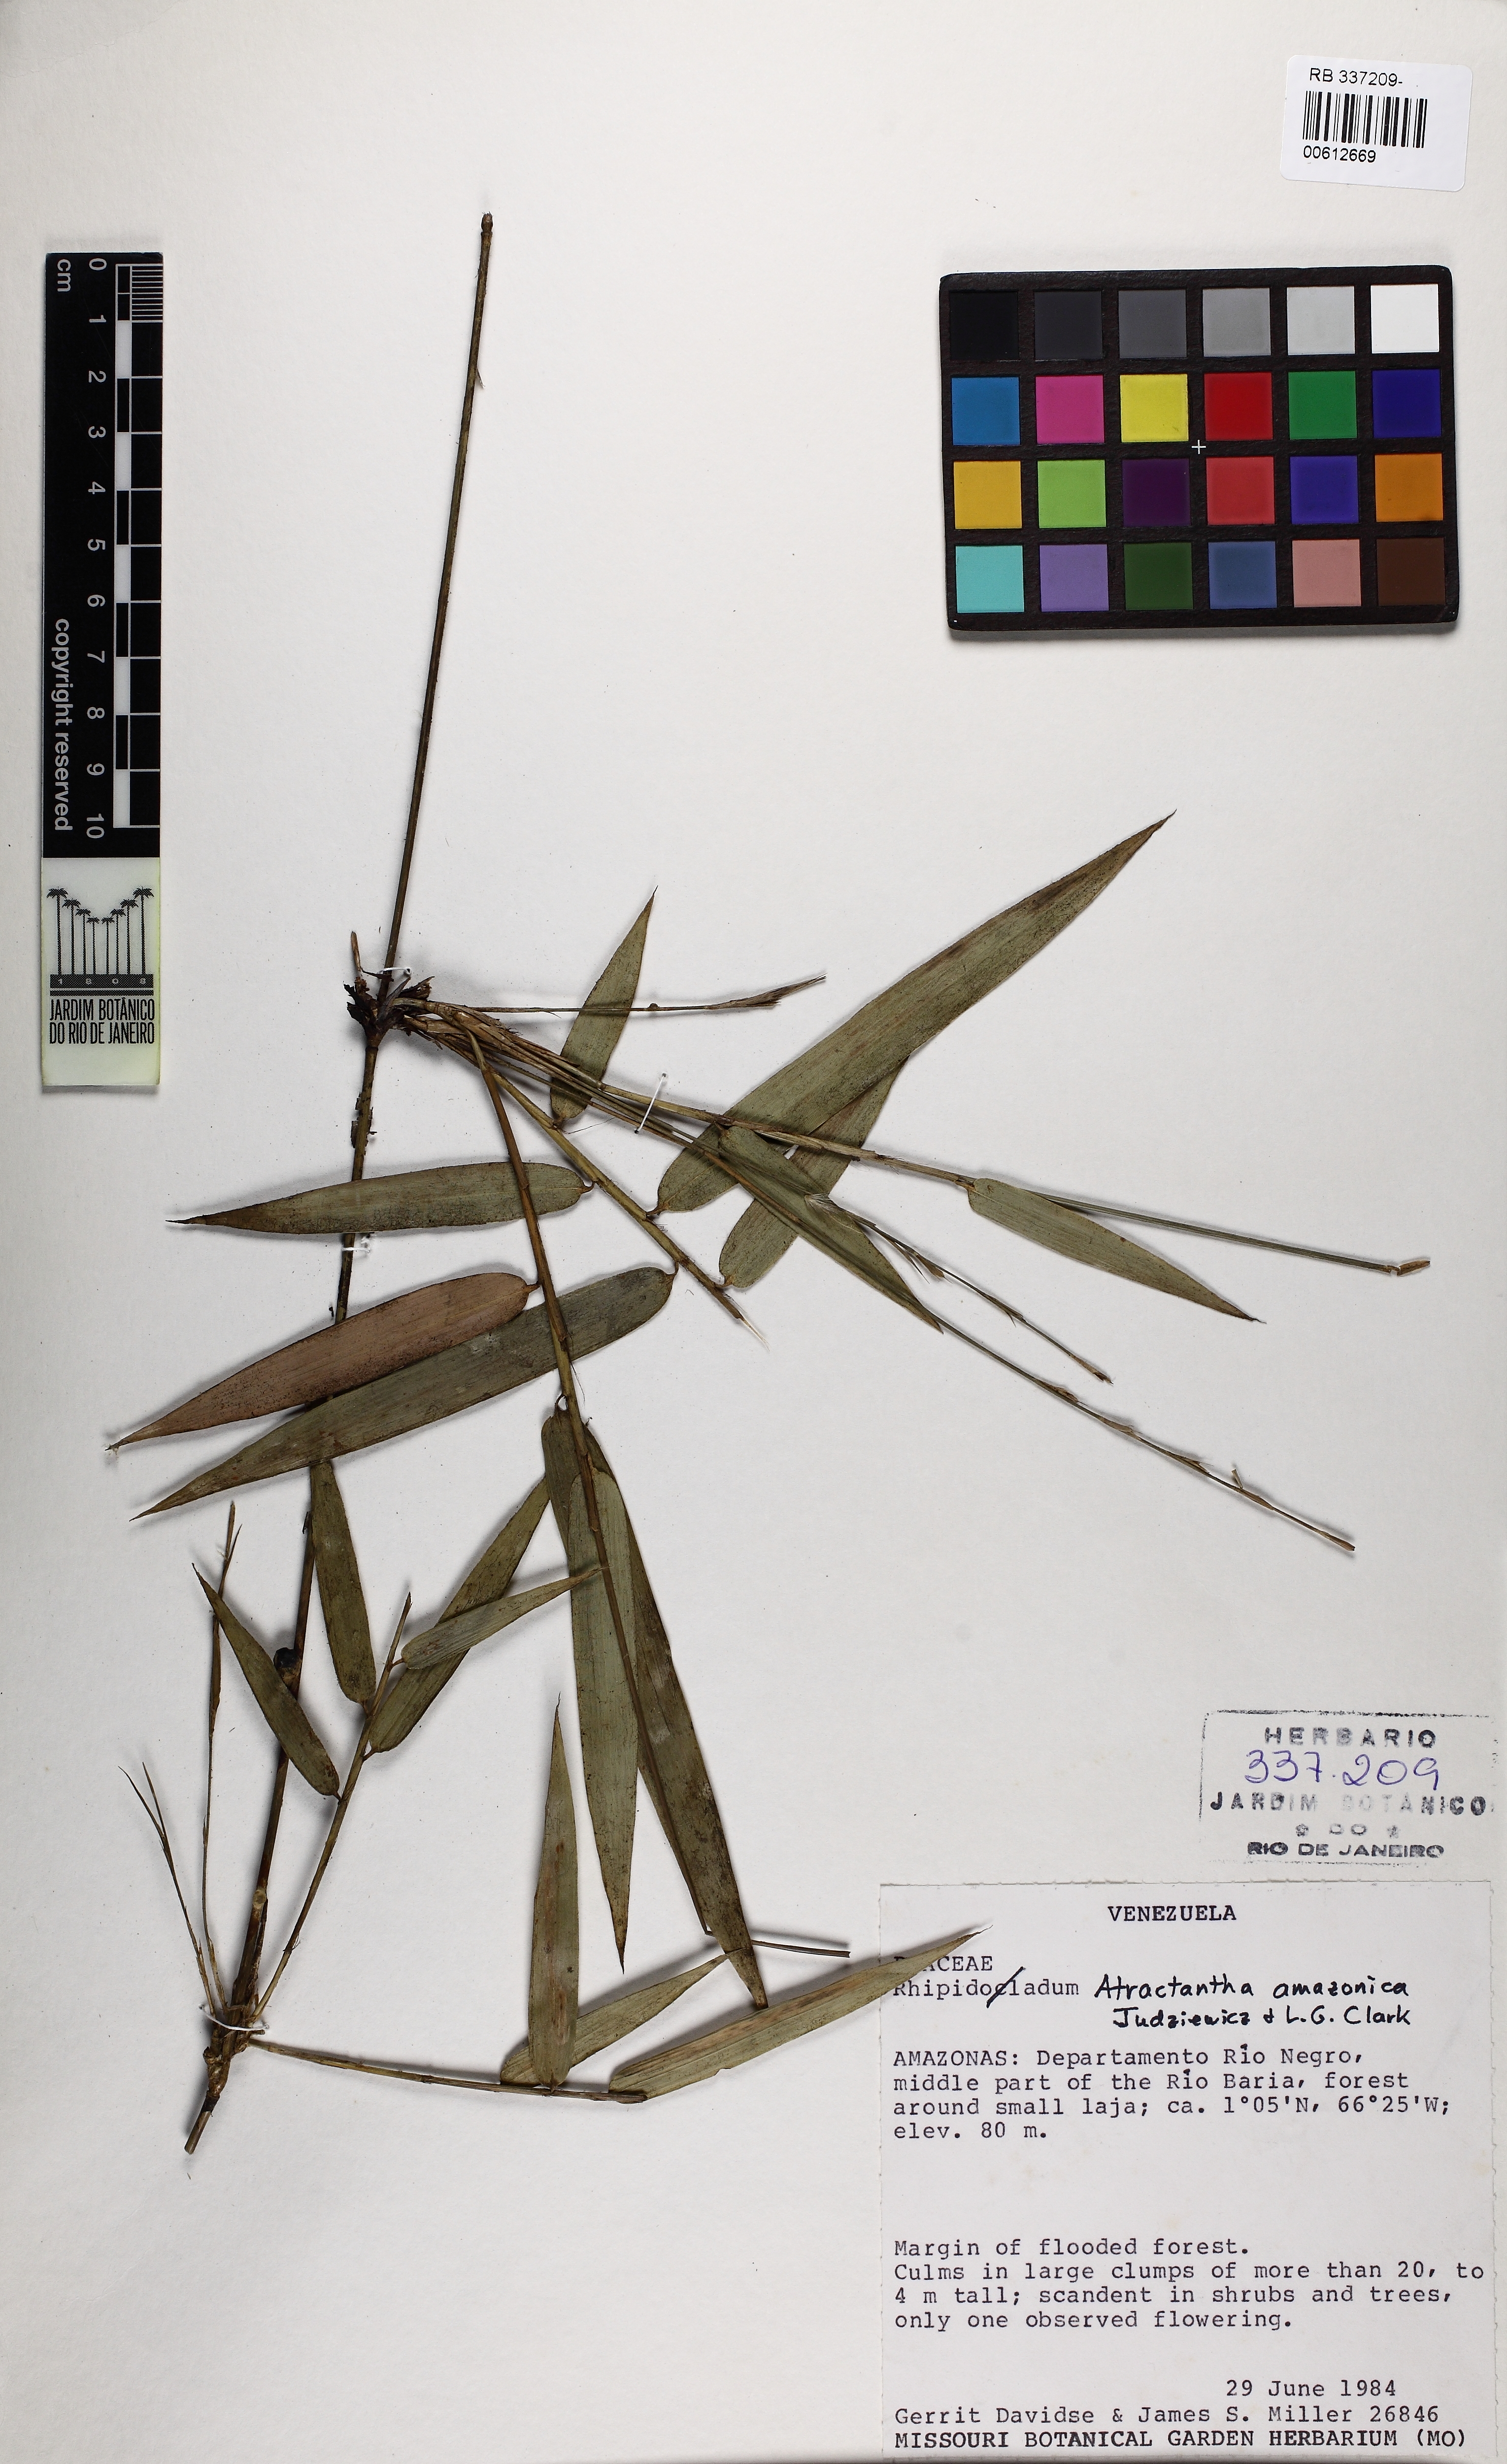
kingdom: Plantae
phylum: Tracheophyta
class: Liliopsida
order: Poales
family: Poaceae
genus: Atractantha
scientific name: Atractantha amazonica
